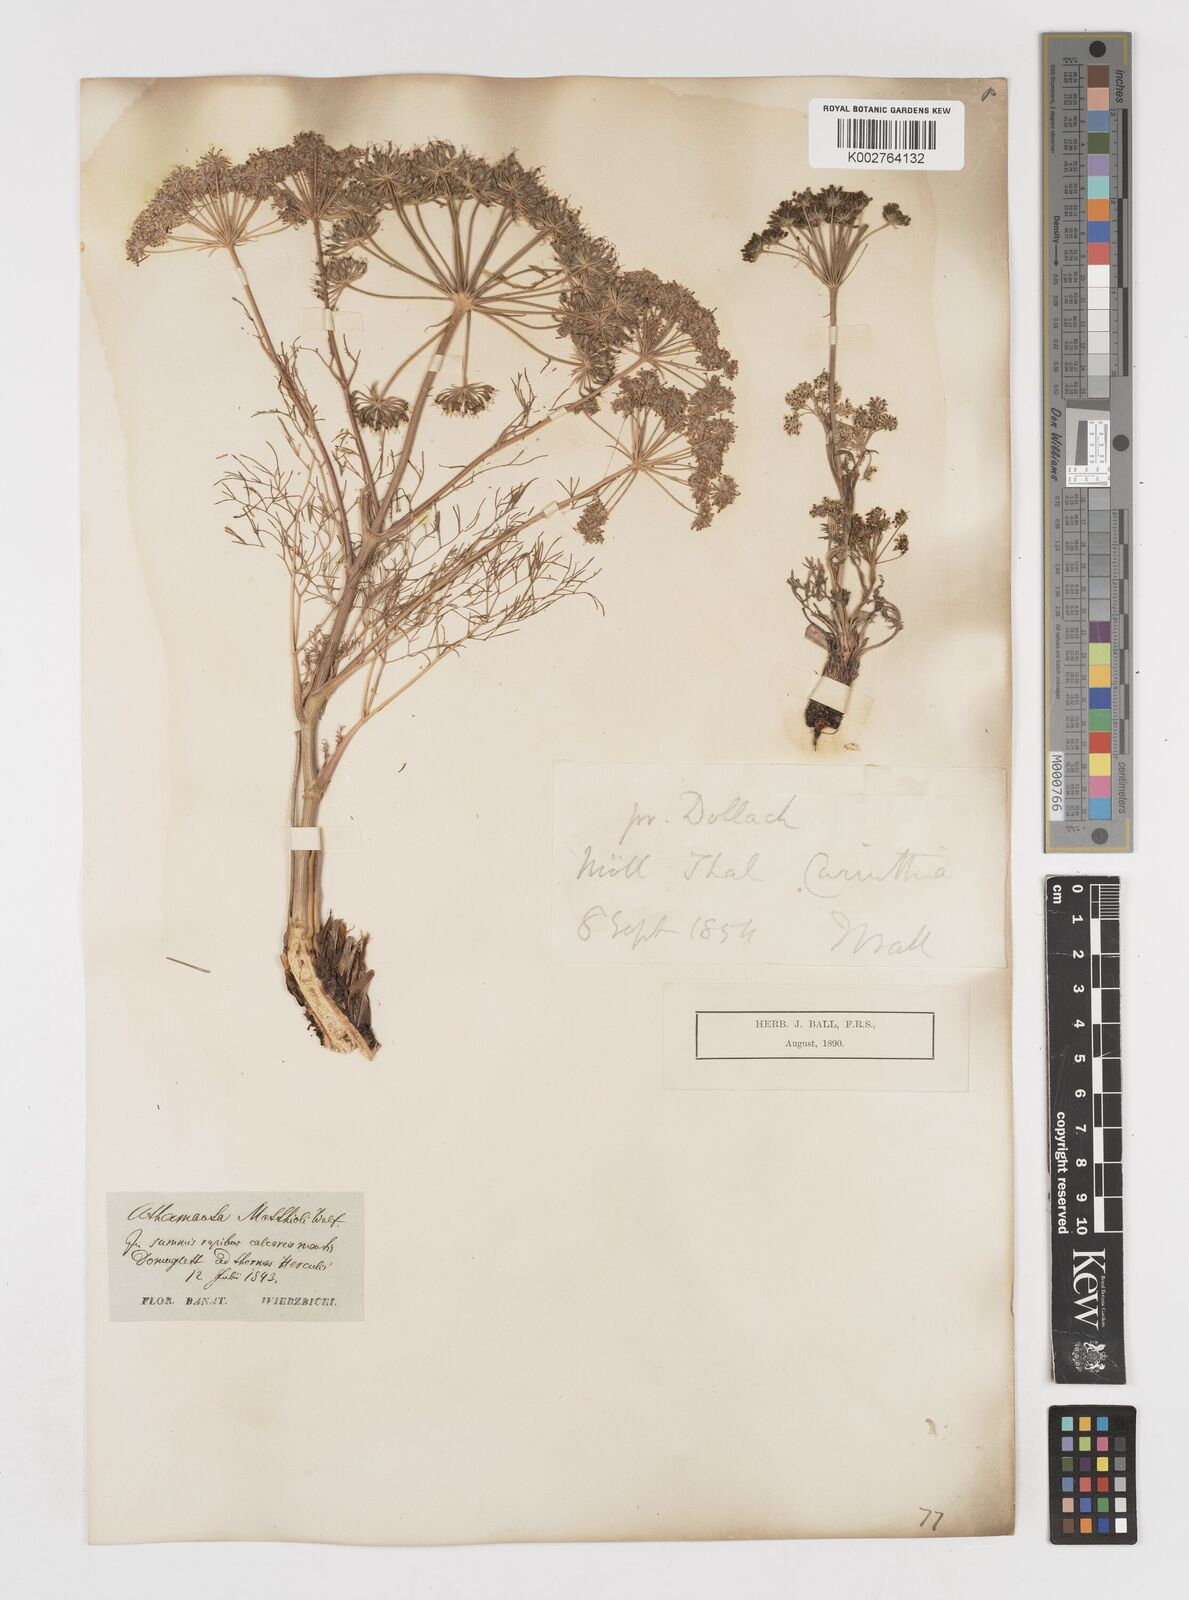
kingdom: Plantae
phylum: Tracheophyta
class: Magnoliopsida
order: Apiales
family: Apiaceae
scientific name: Apiaceae
